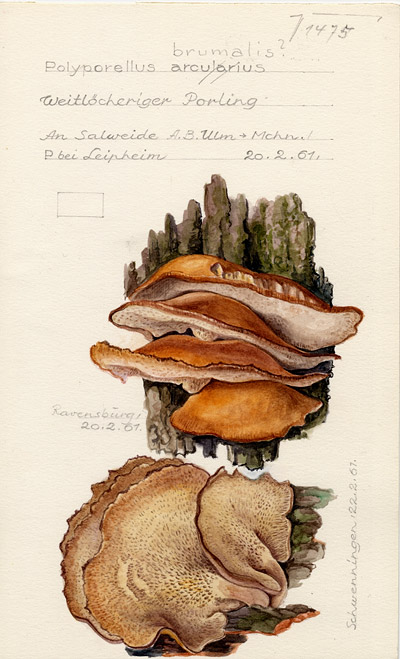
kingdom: Fungi
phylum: Basidiomycota
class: Agaricomycetes
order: Polyporales
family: Polyporaceae
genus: Lentinus
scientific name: Lentinus brumalis
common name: Winter polypore
